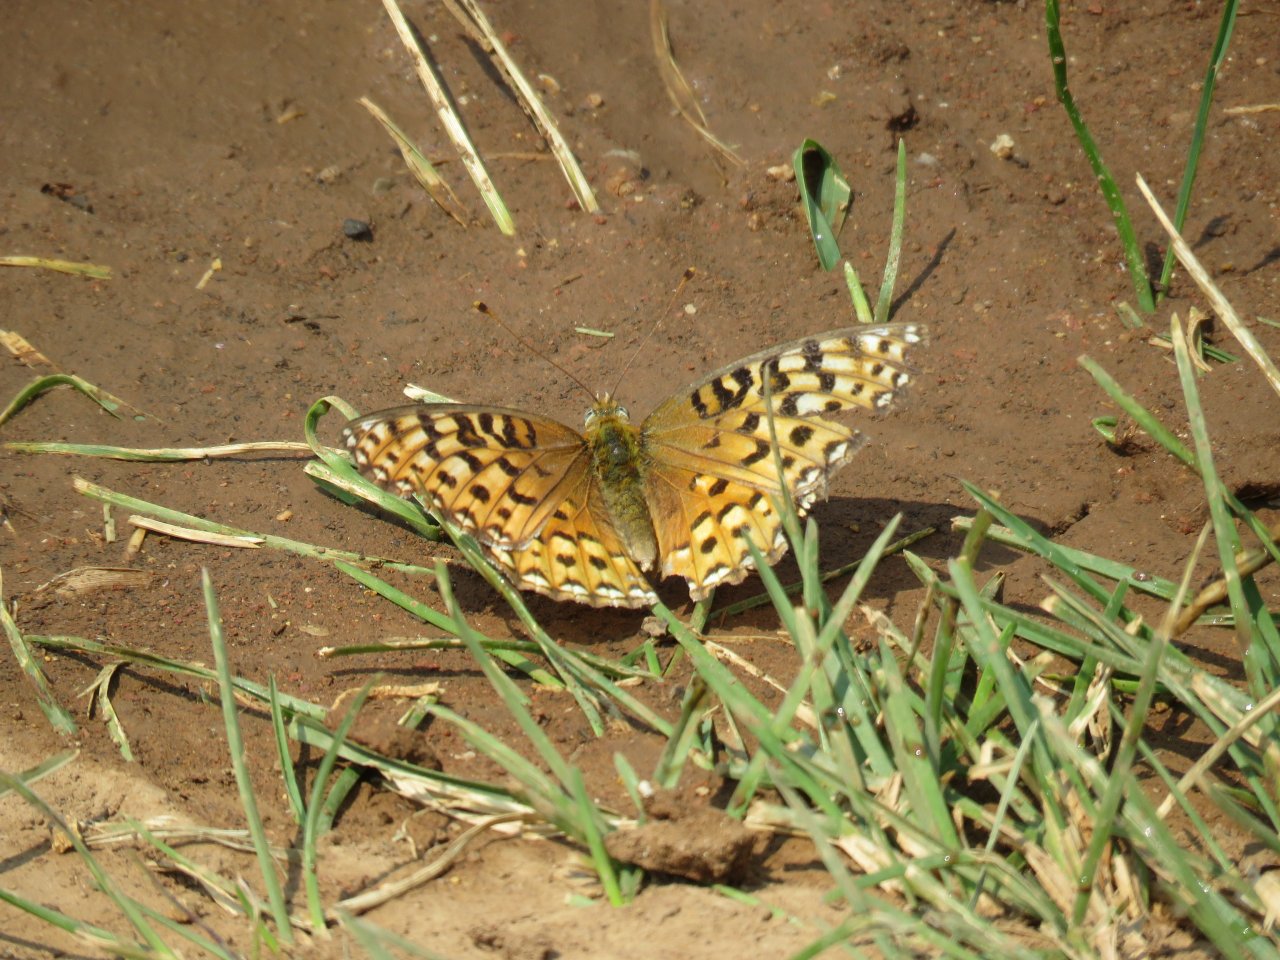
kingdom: Animalia
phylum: Arthropoda
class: Insecta
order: Lepidoptera
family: Nymphalidae
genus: Speyeria
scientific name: Speyeria zerene
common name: Zerene Fritillary
